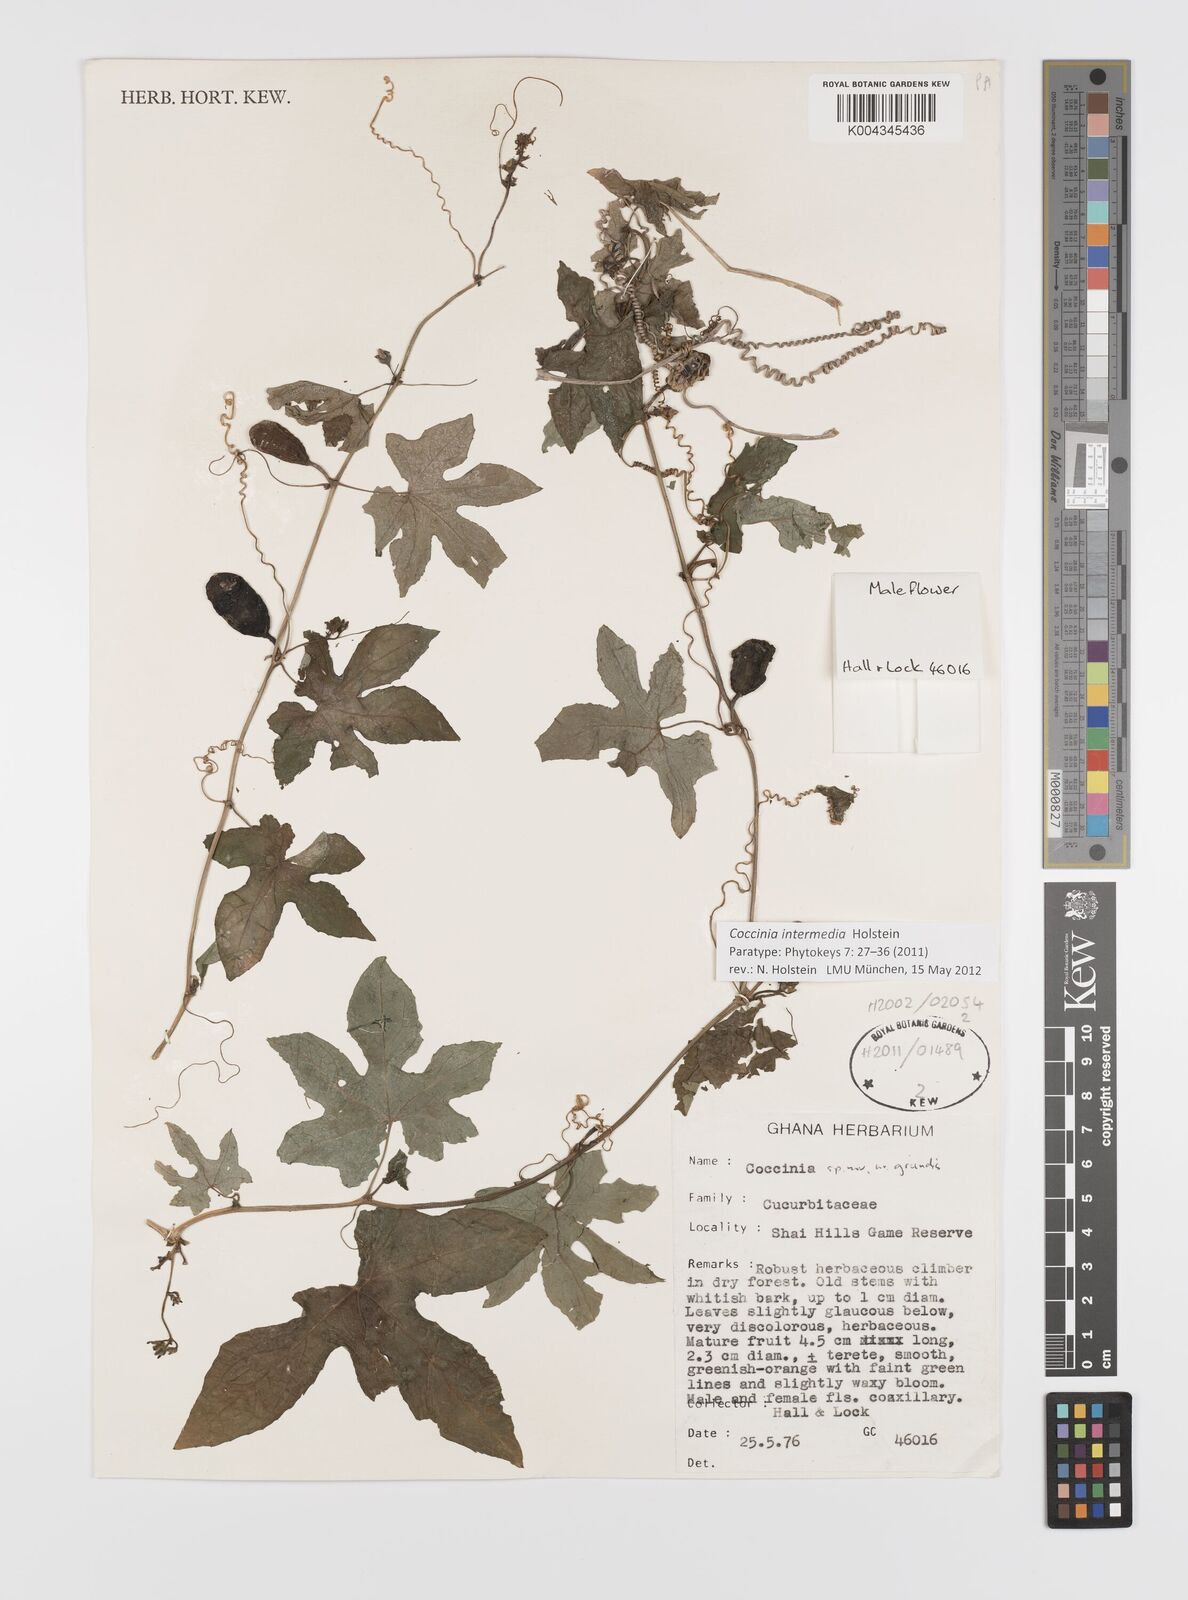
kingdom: Plantae
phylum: Tracheophyta
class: Magnoliopsida
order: Cucurbitales
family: Cucurbitaceae
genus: Coccinia
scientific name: Coccinia intermedia
